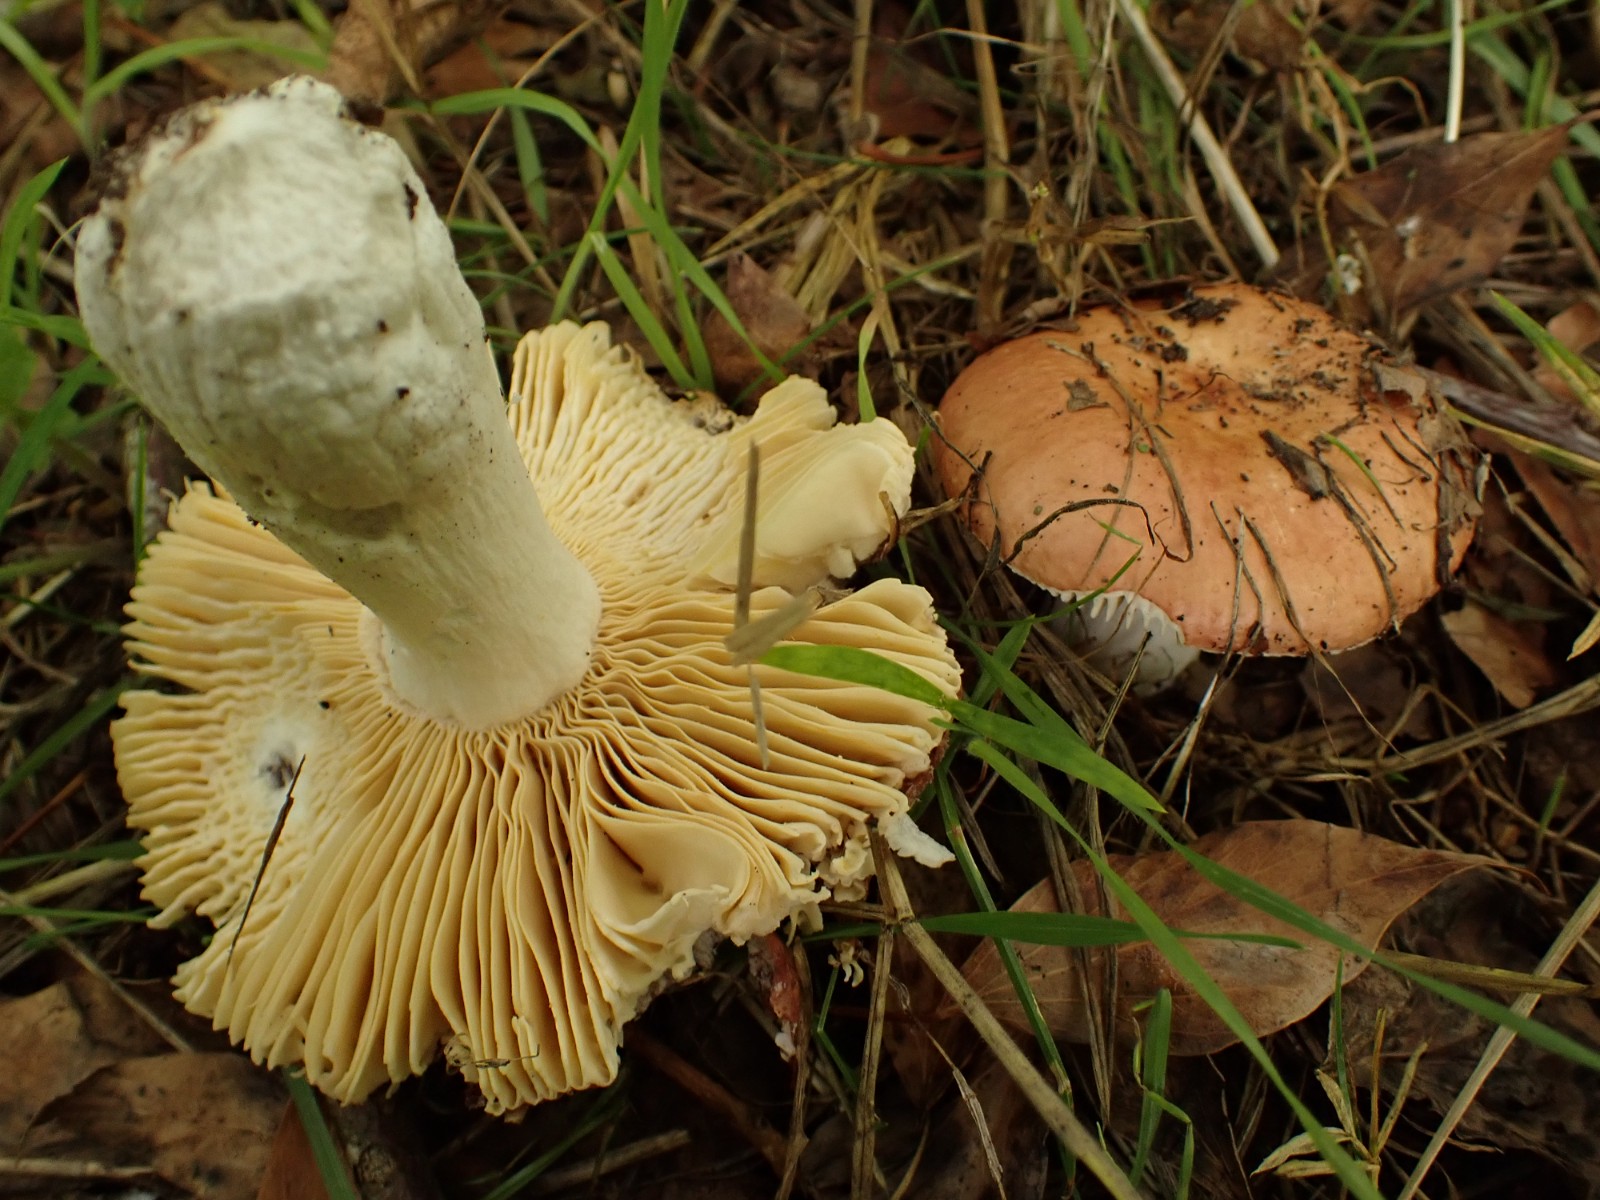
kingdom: Fungi
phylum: Basidiomycota
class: Agaricomycetes
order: Russulales
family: Russulaceae
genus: Russula
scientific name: Russula
